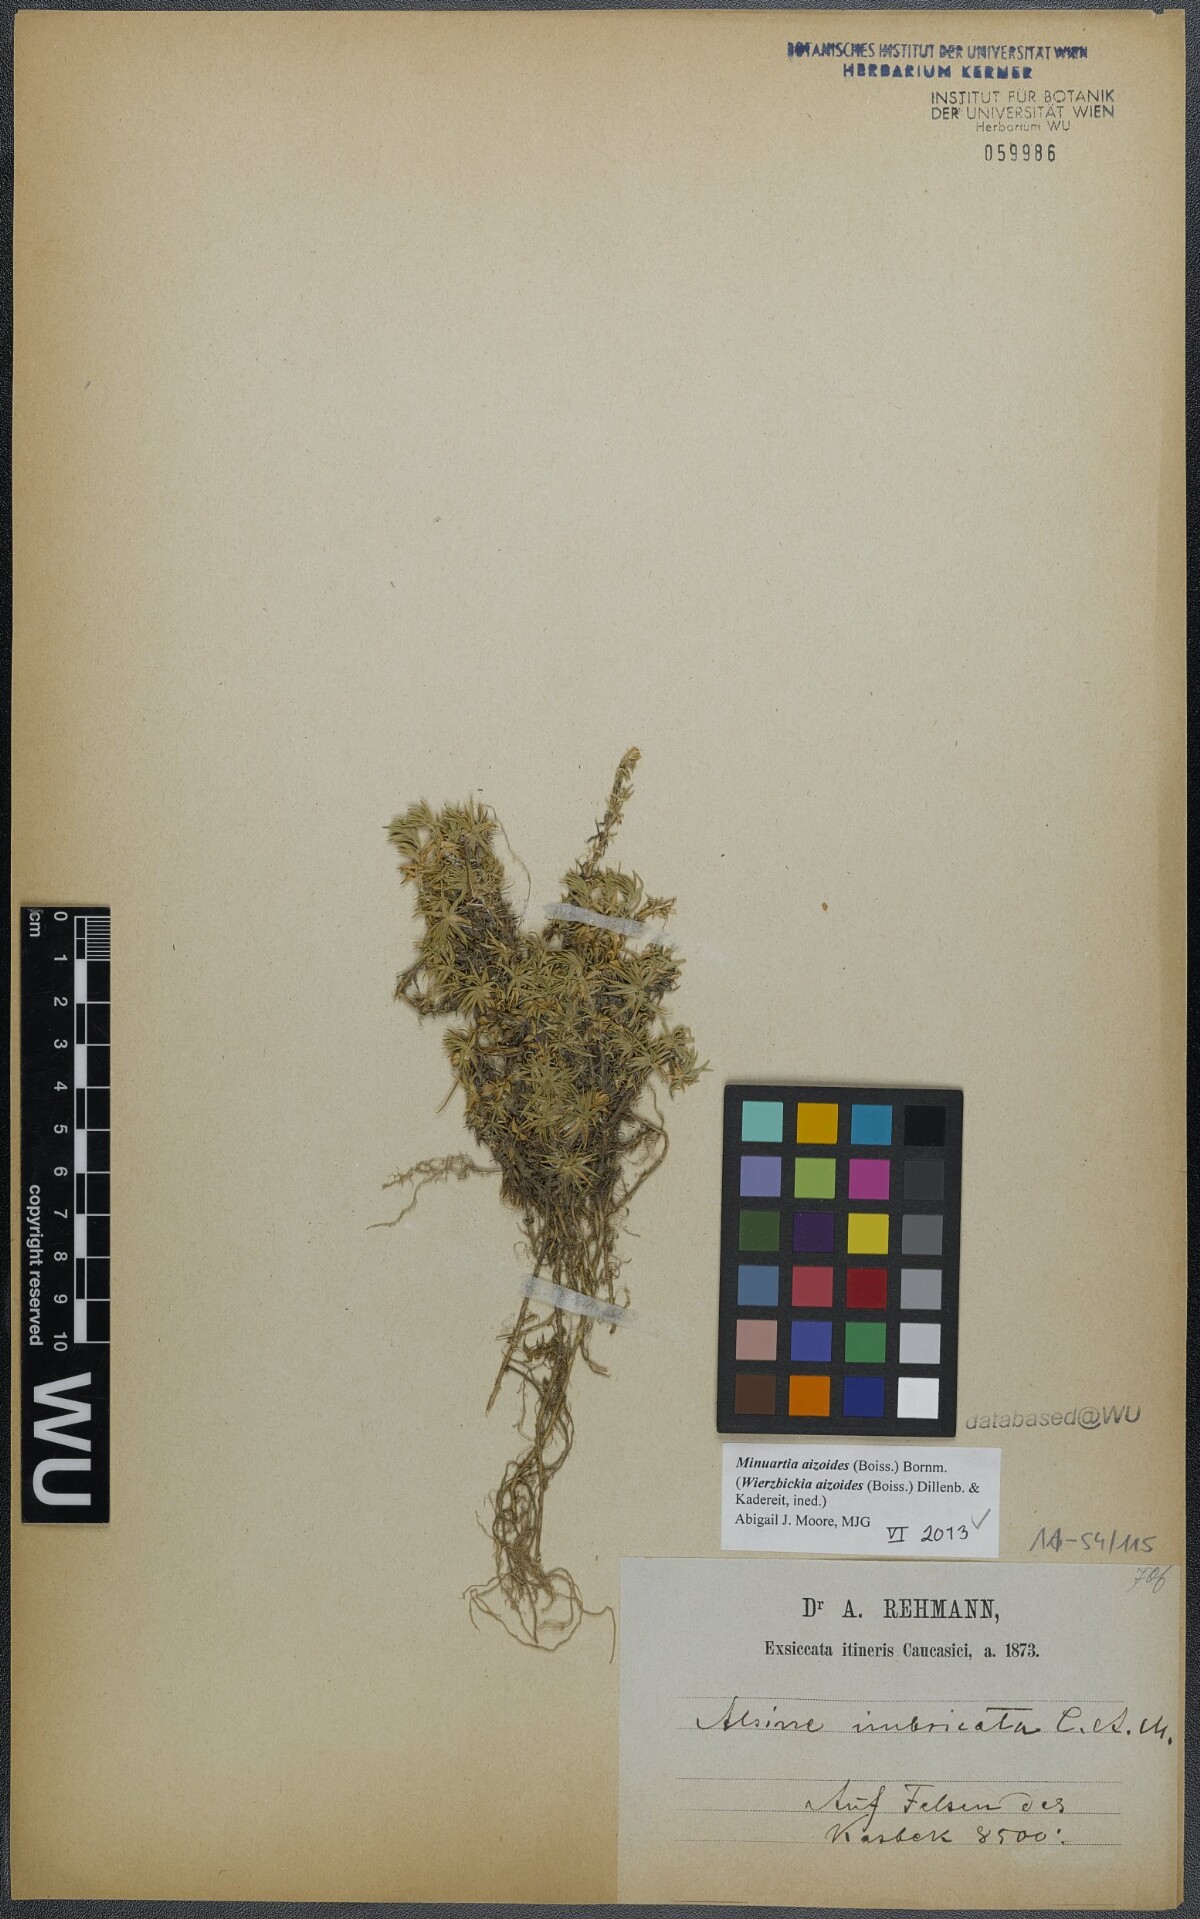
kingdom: Plantae
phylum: Tracheophyta
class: Magnoliopsida
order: Caryophyllales
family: Caryophyllaceae
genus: Pseudocherleria
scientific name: Pseudocherleria aizoides
